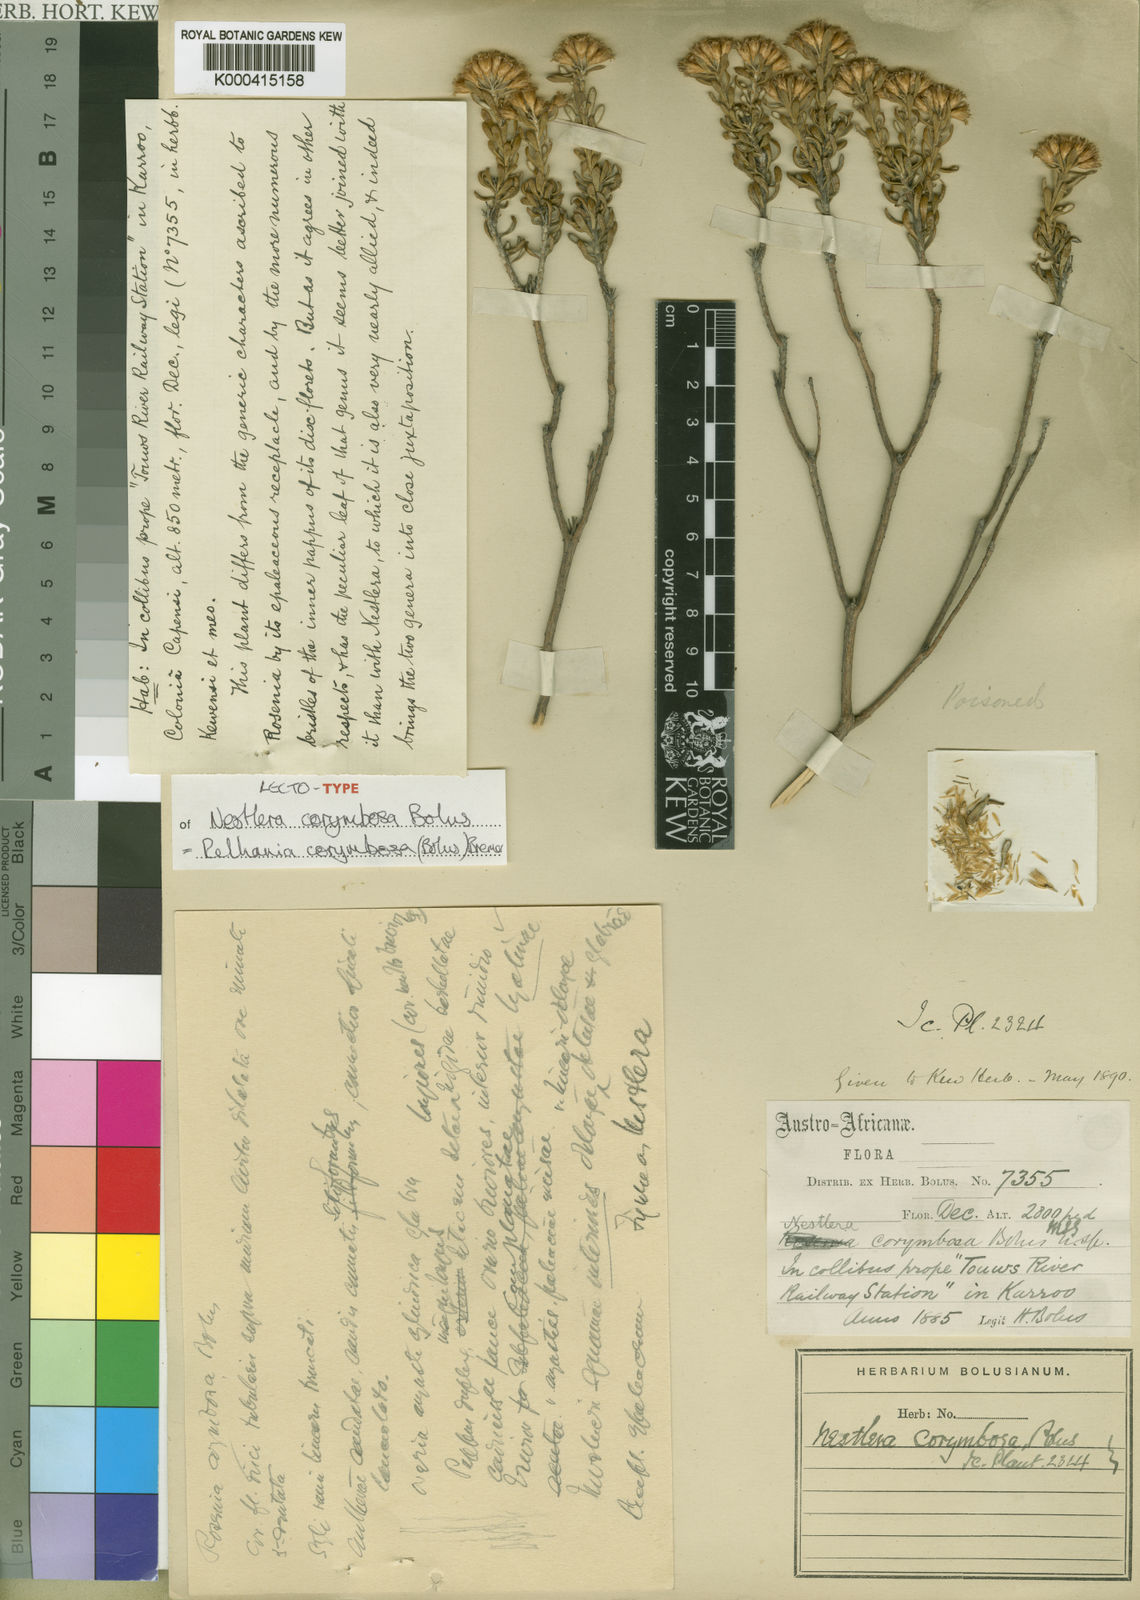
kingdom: Plantae
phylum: Tracheophyta
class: Magnoliopsida
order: Asterales
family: Asteraceae
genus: Oedera
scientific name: Oedera corymbosa
